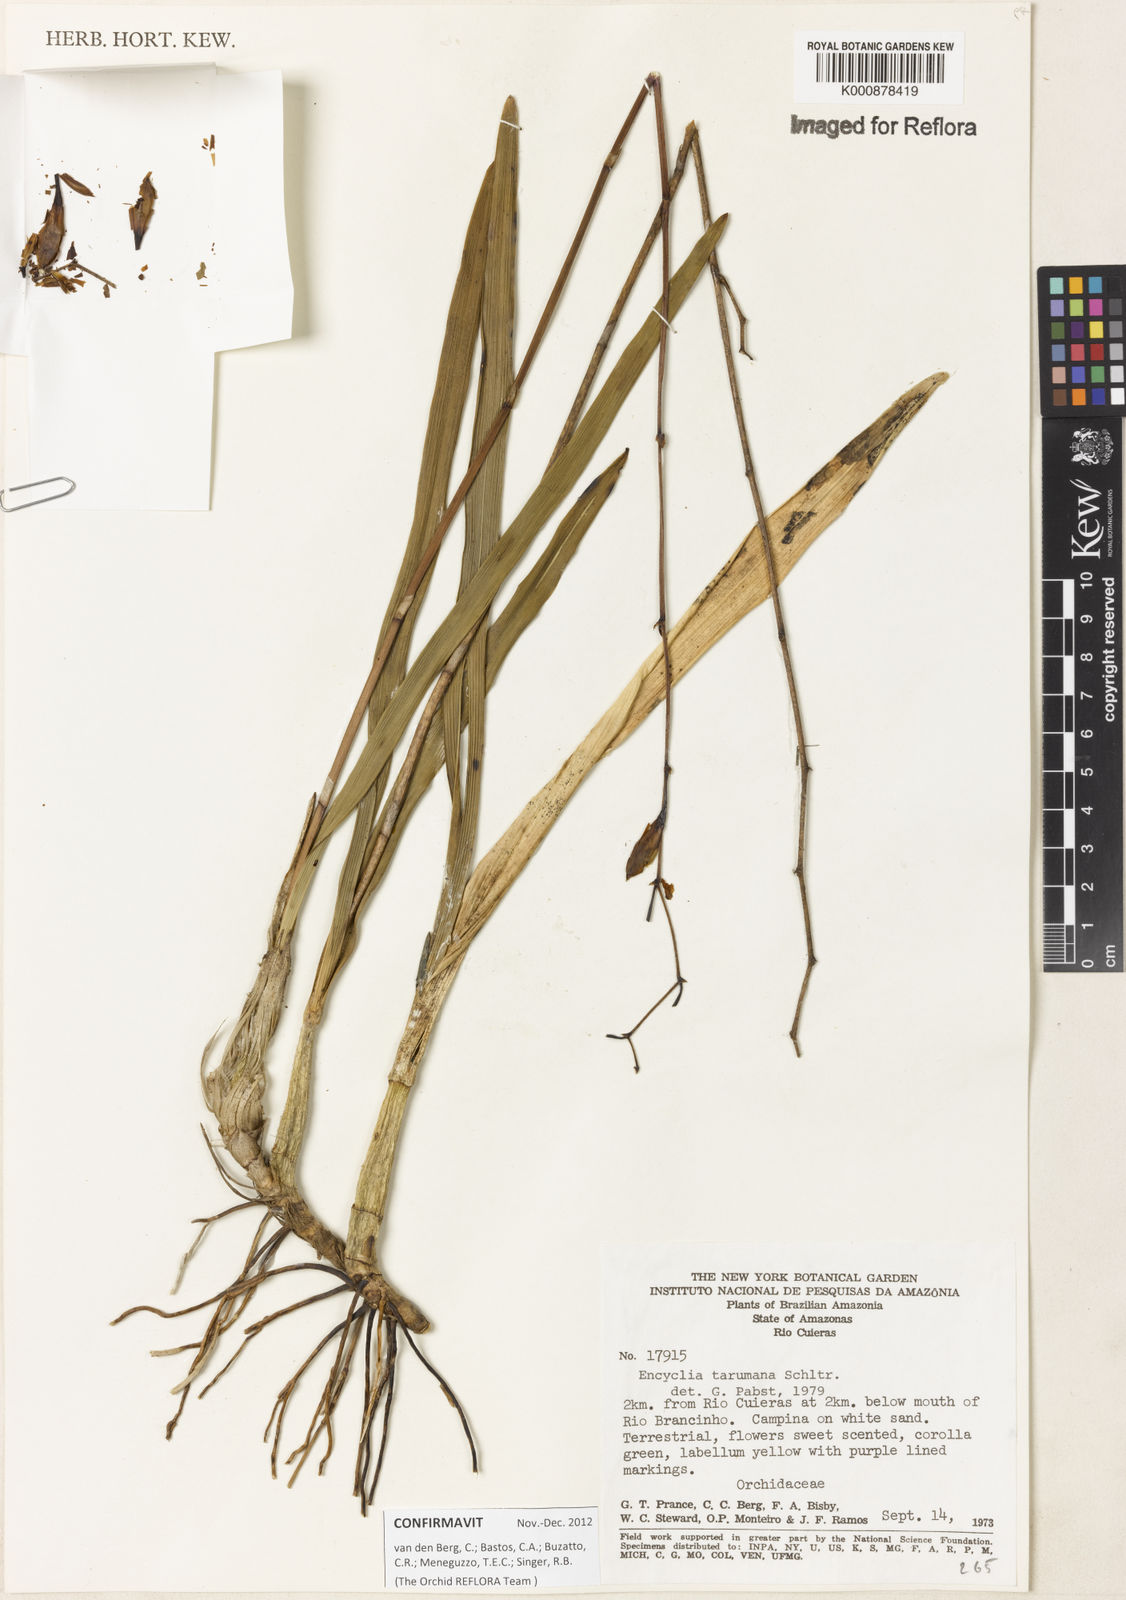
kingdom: Plantae
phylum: Tracheophyta
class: Liliopsida
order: Asparagales
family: Orchidaceae
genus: Encyclia
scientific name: Encyclia mapuerae
